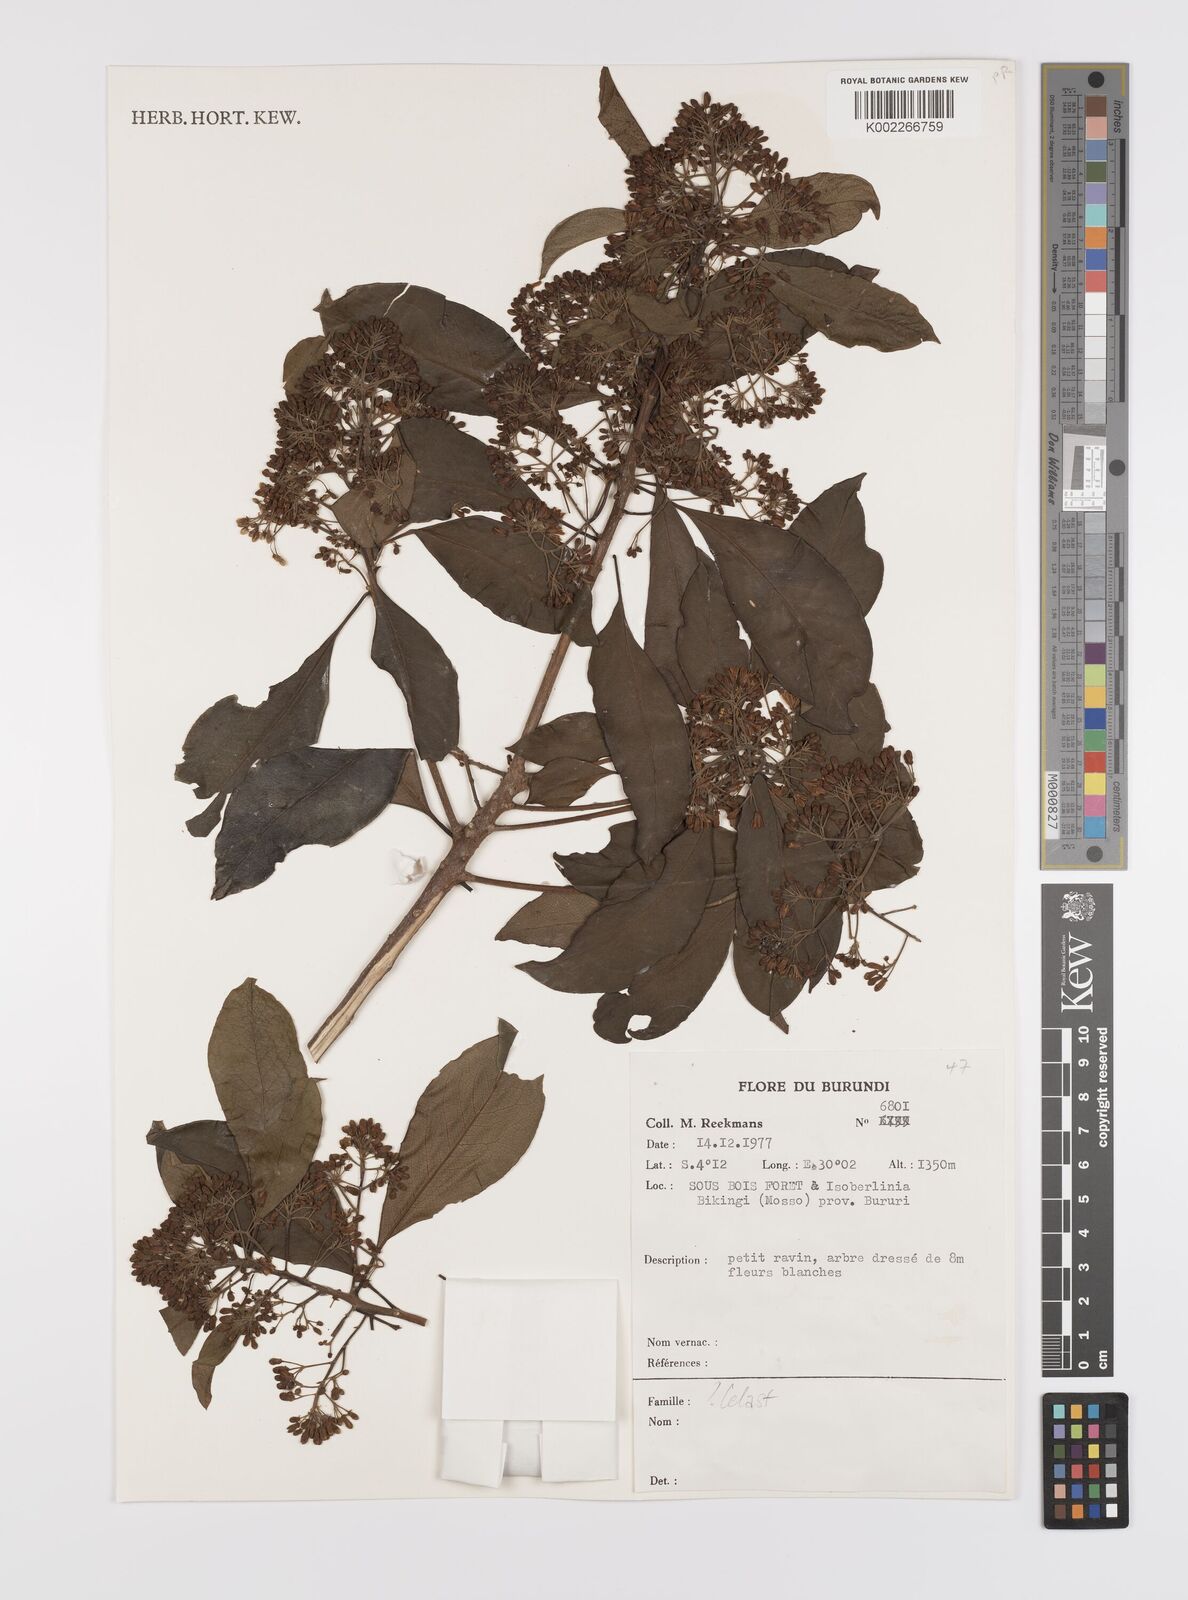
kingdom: Plantae
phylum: Tracheophyta
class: Magnoliopsida
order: Celastrales
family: Celastraceae
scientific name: Celastraceae
